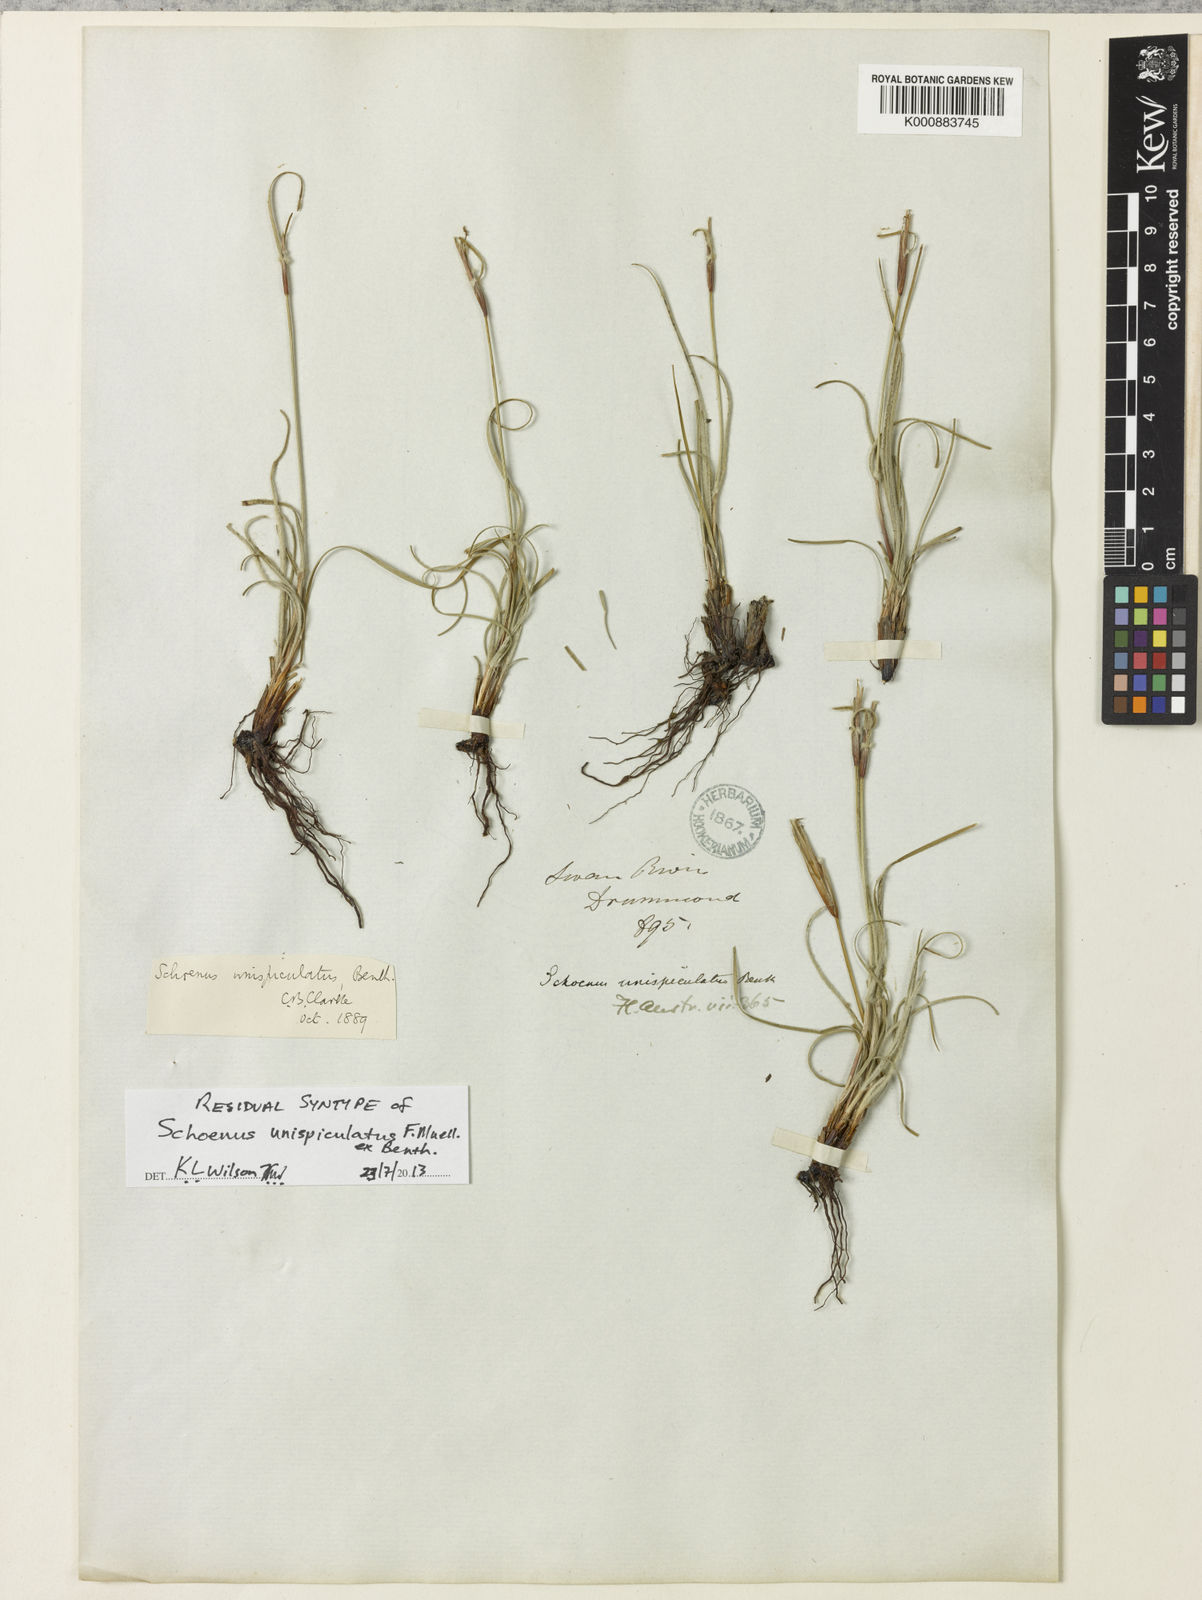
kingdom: Plantae
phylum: Tracheophyta
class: Liliopsida
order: Poales
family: Cyperaceae
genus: Schoenus
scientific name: Schoenus unispiculatus
